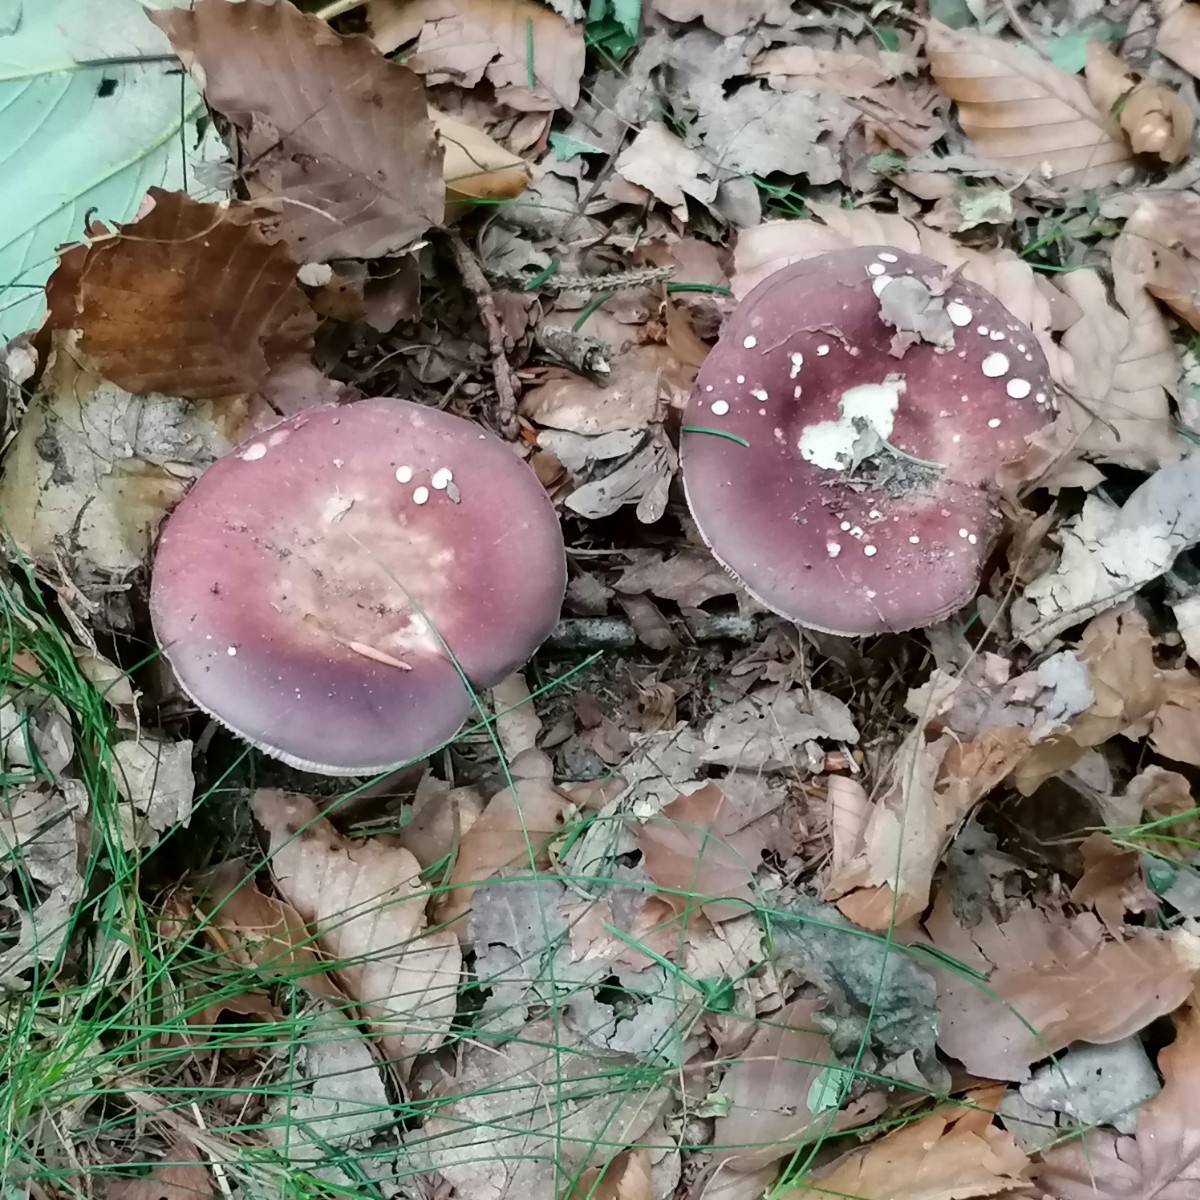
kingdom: Fungi
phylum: Basidiomycota
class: Agaricomycetes
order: Russulales
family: Russulaceae
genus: Russula
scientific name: Russula vesca
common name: spiselig skørhat
